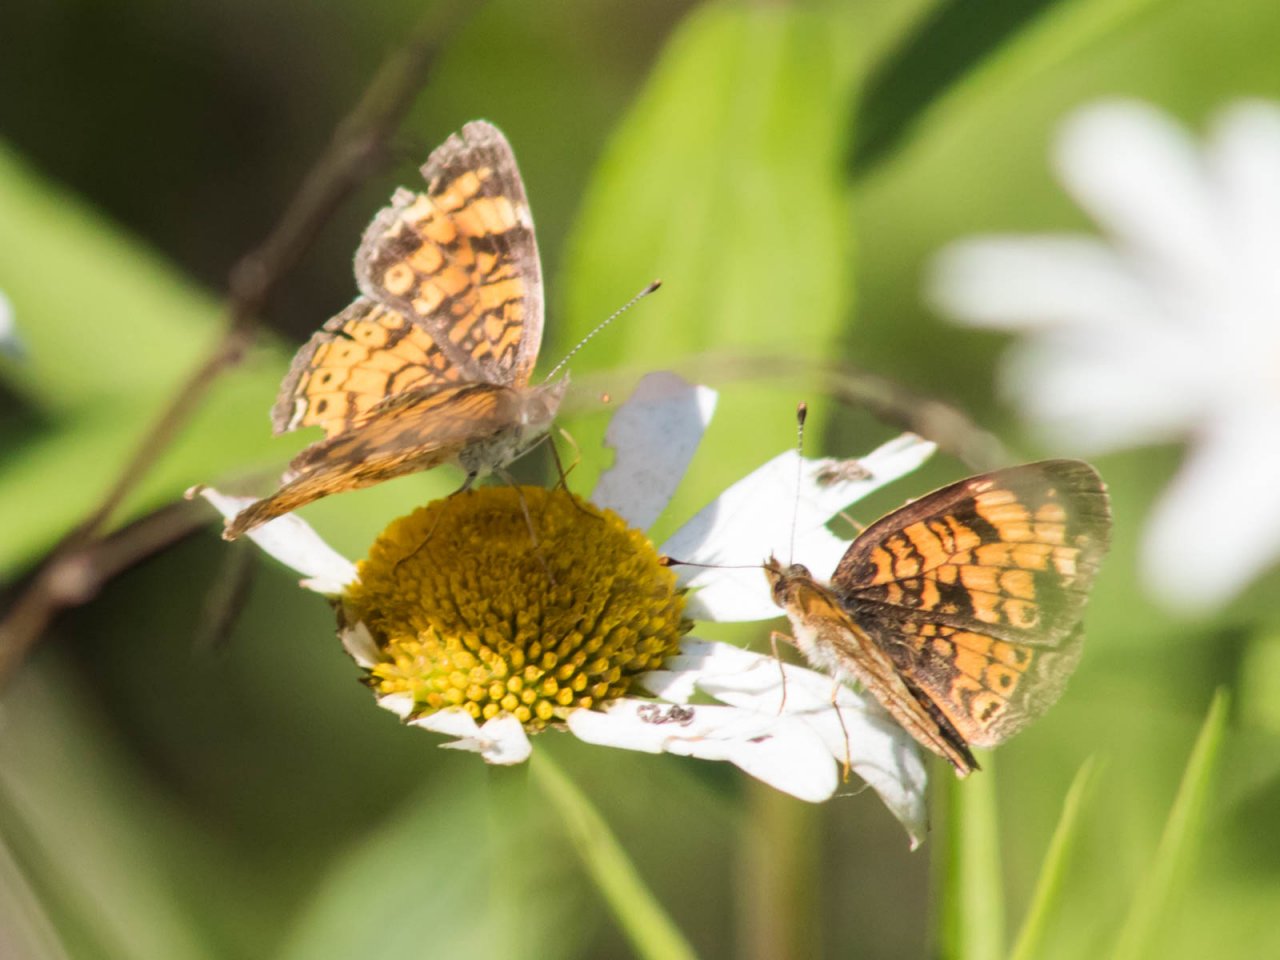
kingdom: Animalia
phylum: Arthropoda
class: Insecta
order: Lepidoptera
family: Nymphalidae
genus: Phyciodes
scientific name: Phyciodes
